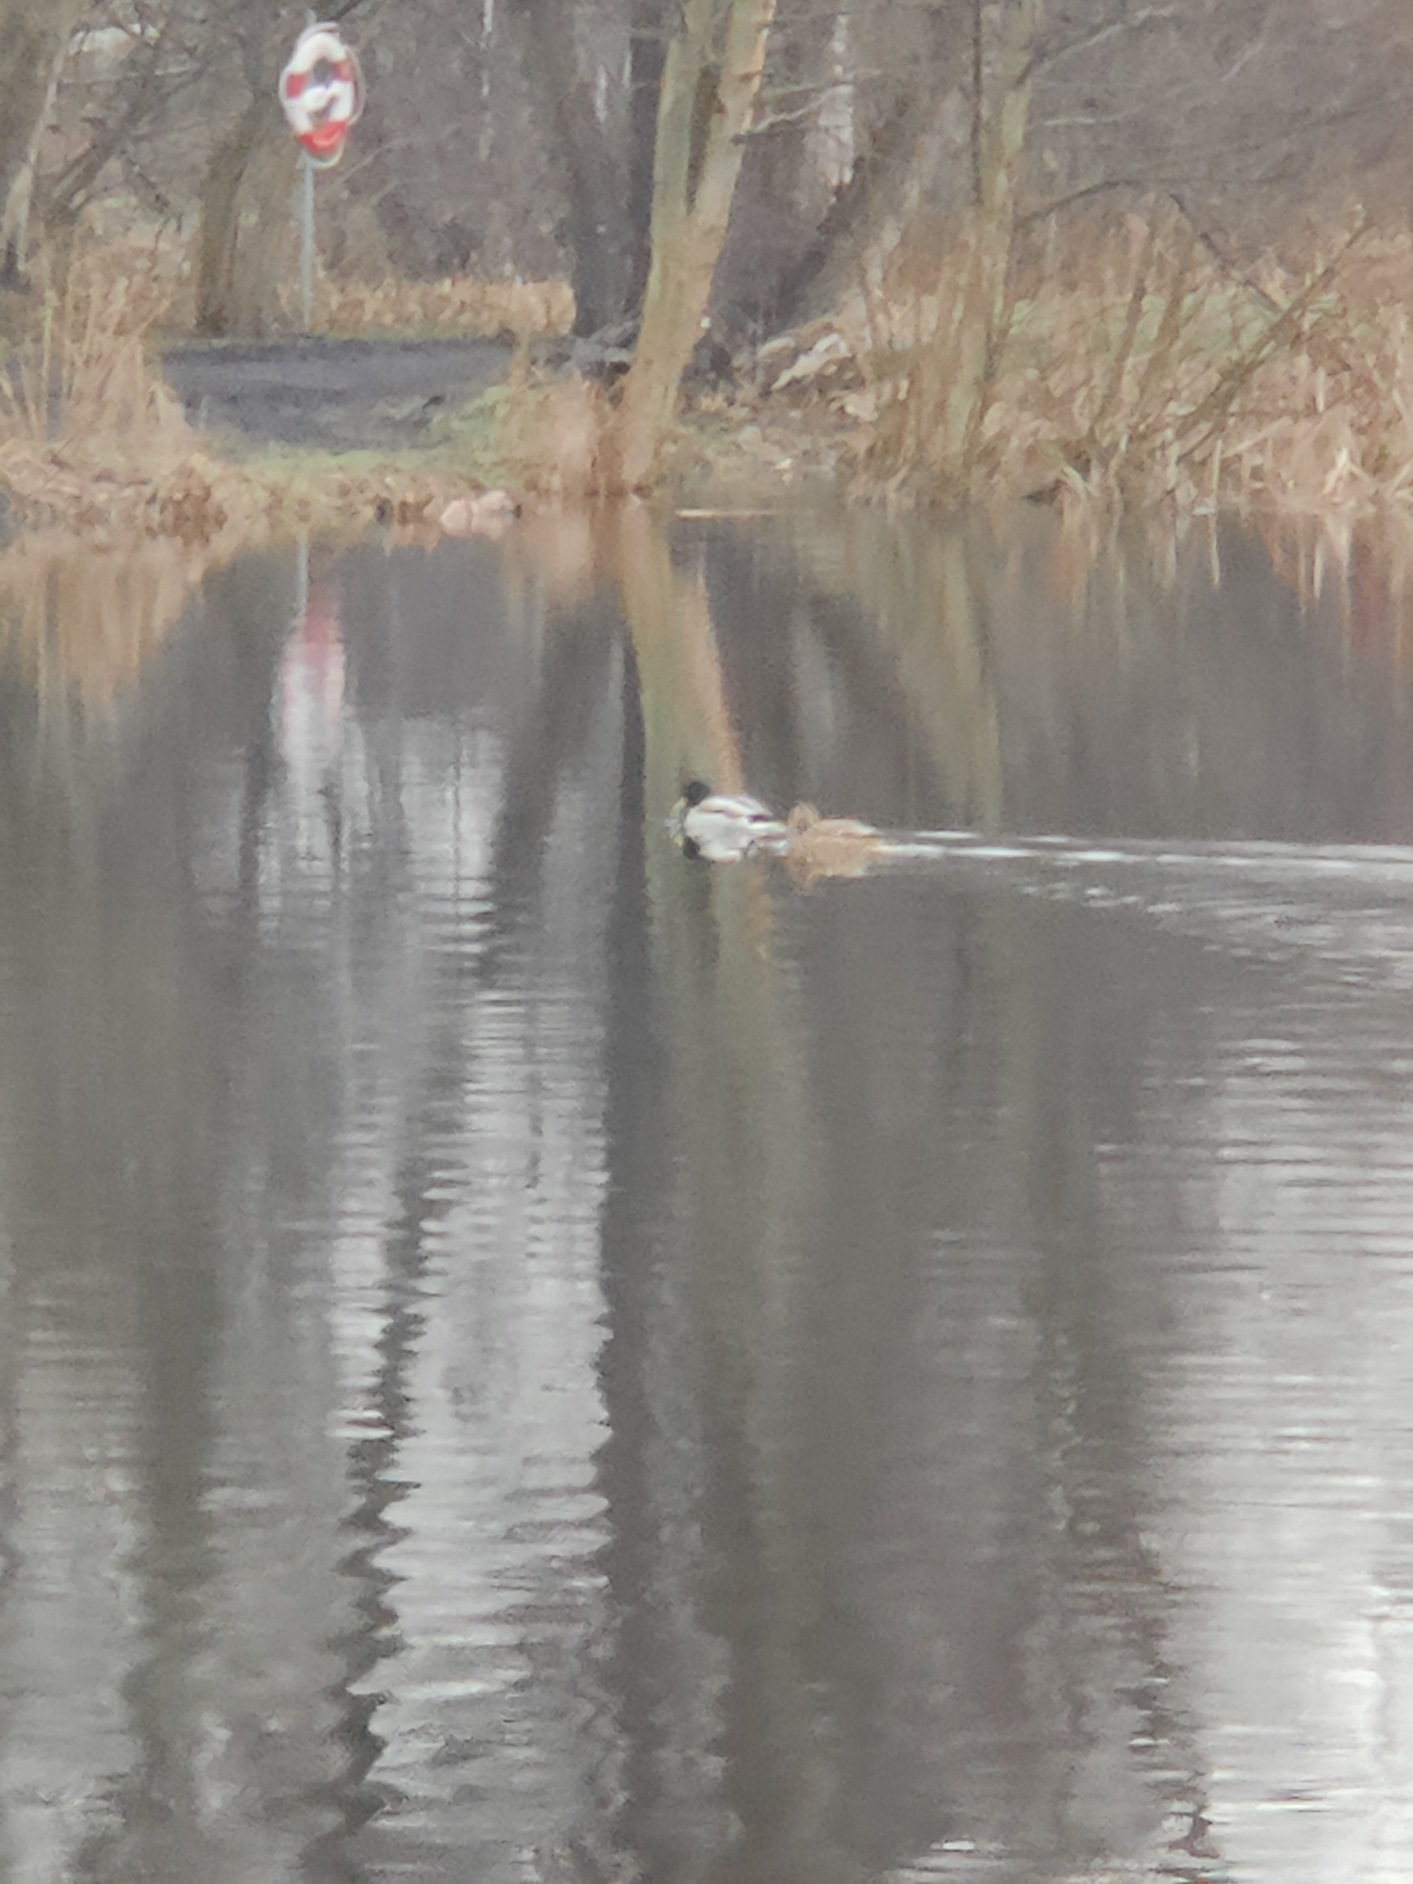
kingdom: Animalia
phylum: Chordata
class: Aves
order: Anseriformes
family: Anatidae
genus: Anas
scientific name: Anas platyrhynchos
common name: Gråand
